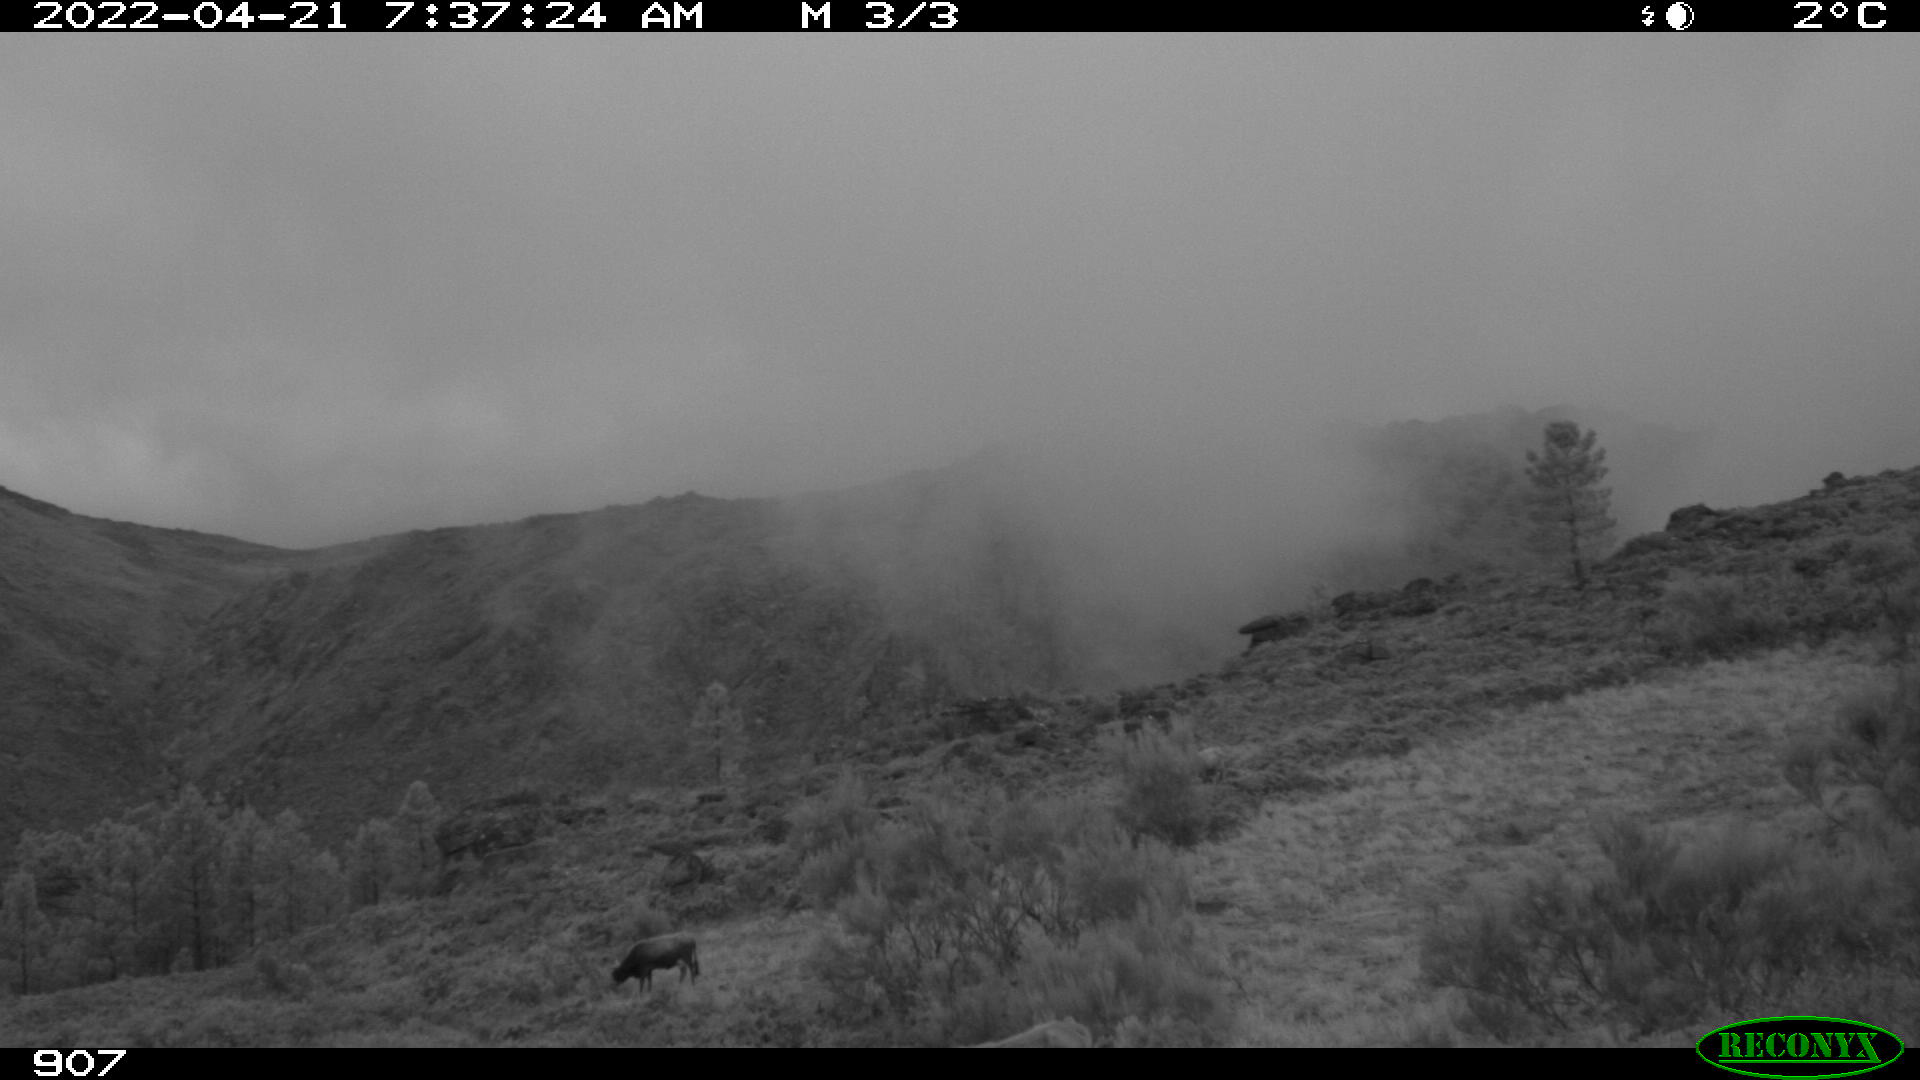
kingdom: Animalia
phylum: Chordata
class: Mammalia
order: Artiodactyla
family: Bovidae
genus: Bos
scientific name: Bos taurus
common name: Domesticated cattle
